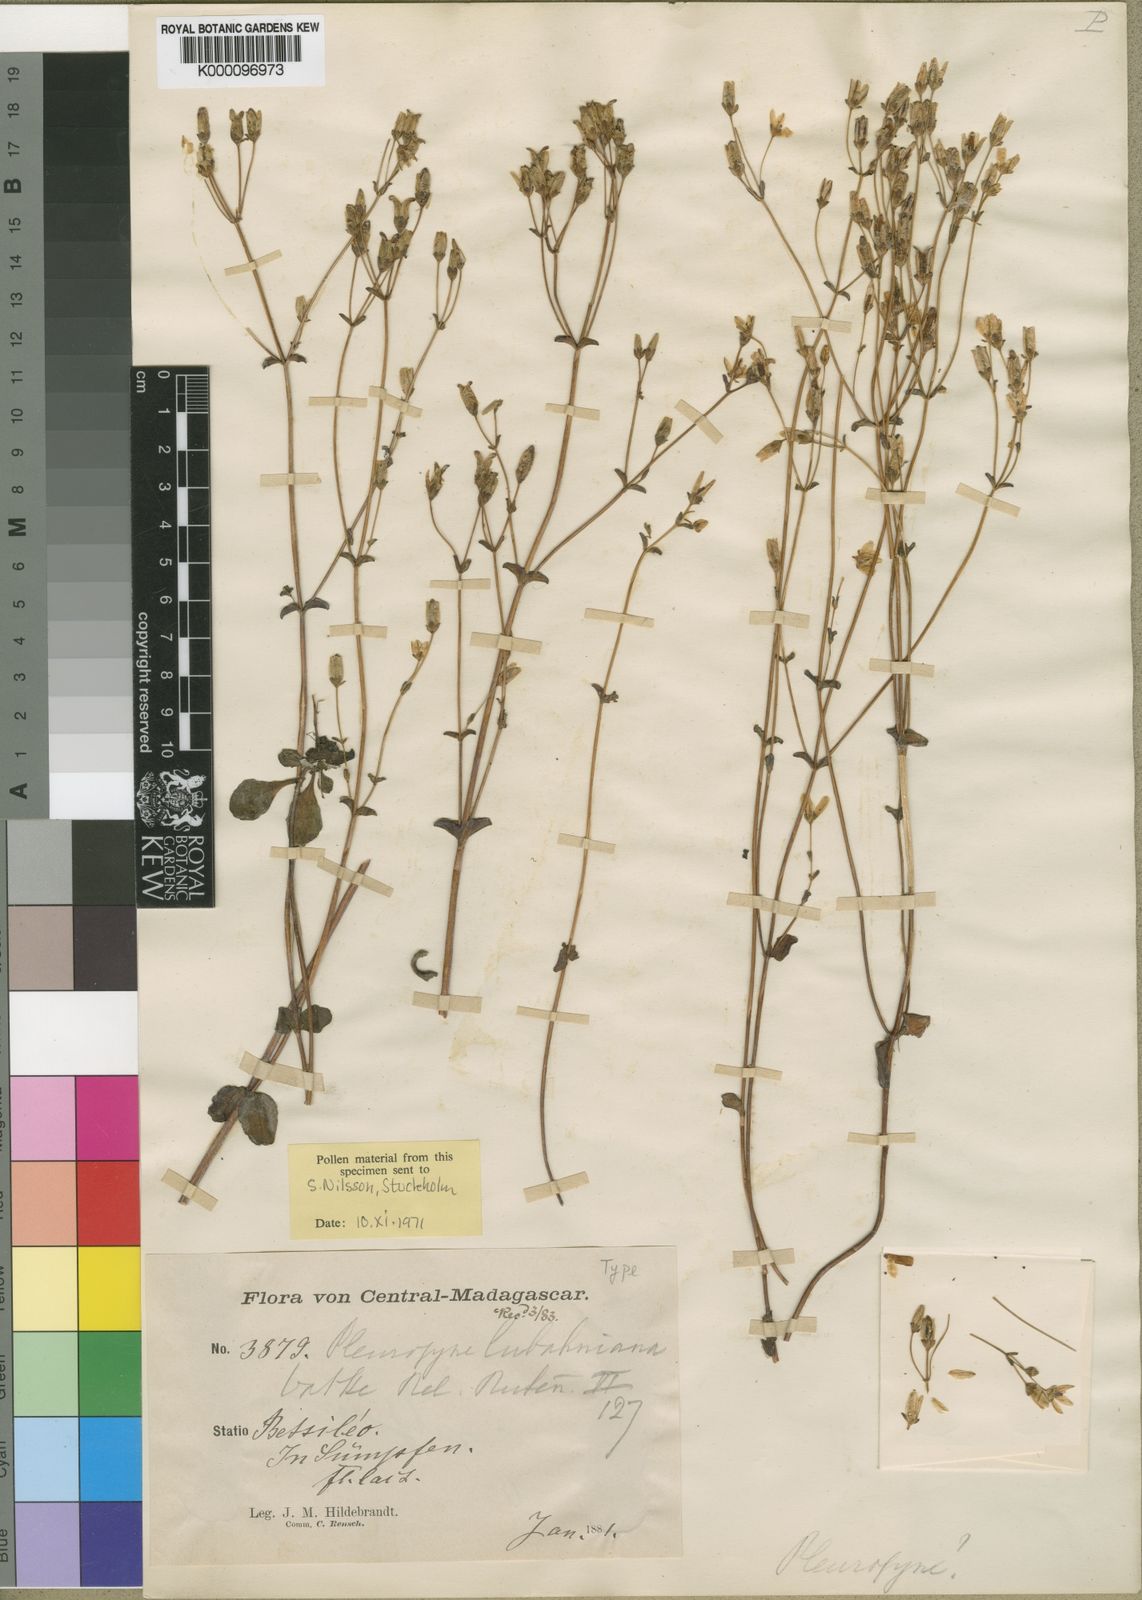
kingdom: Plantae
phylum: Tracheophyta
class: Magnoliopsida
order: Gentianales
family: Gentianaceae
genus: Swertia
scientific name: Swertia rosulata
